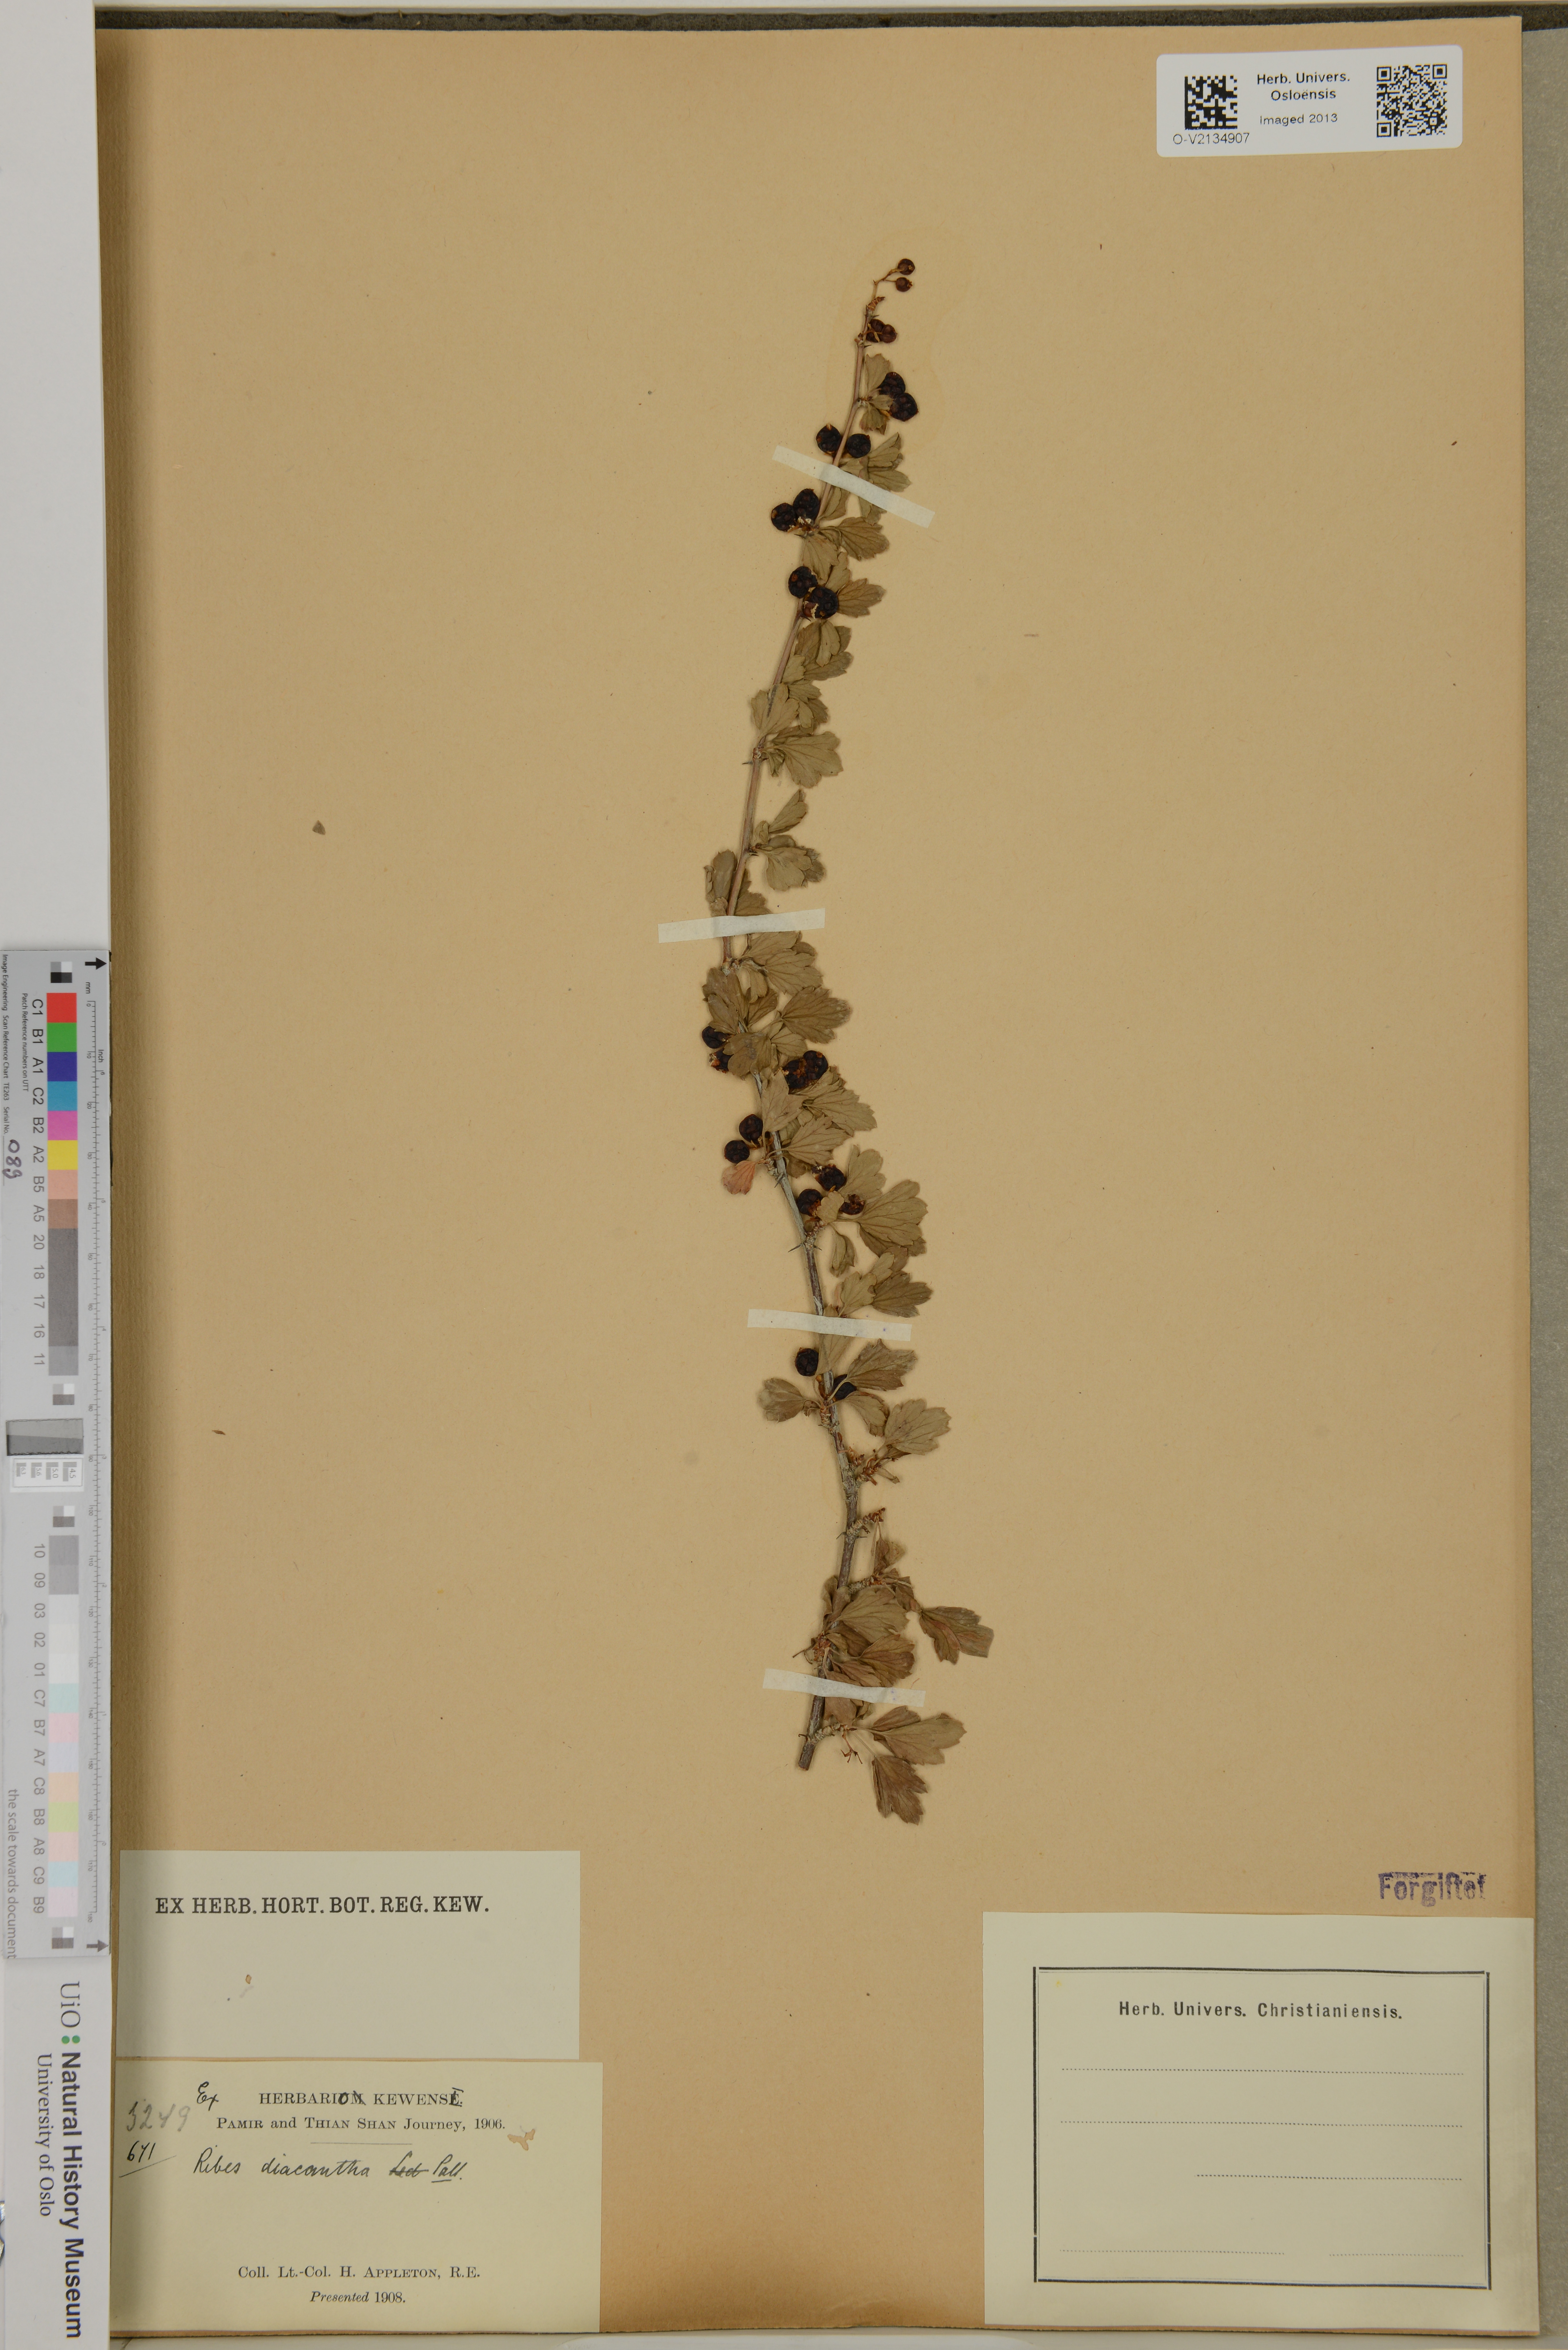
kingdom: Plantae
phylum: Tracheophyta
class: Magnoliopsida
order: Saxifragales
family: Grossulariaceae
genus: Ribes
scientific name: Ribes diacanthum
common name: Siberian currant
